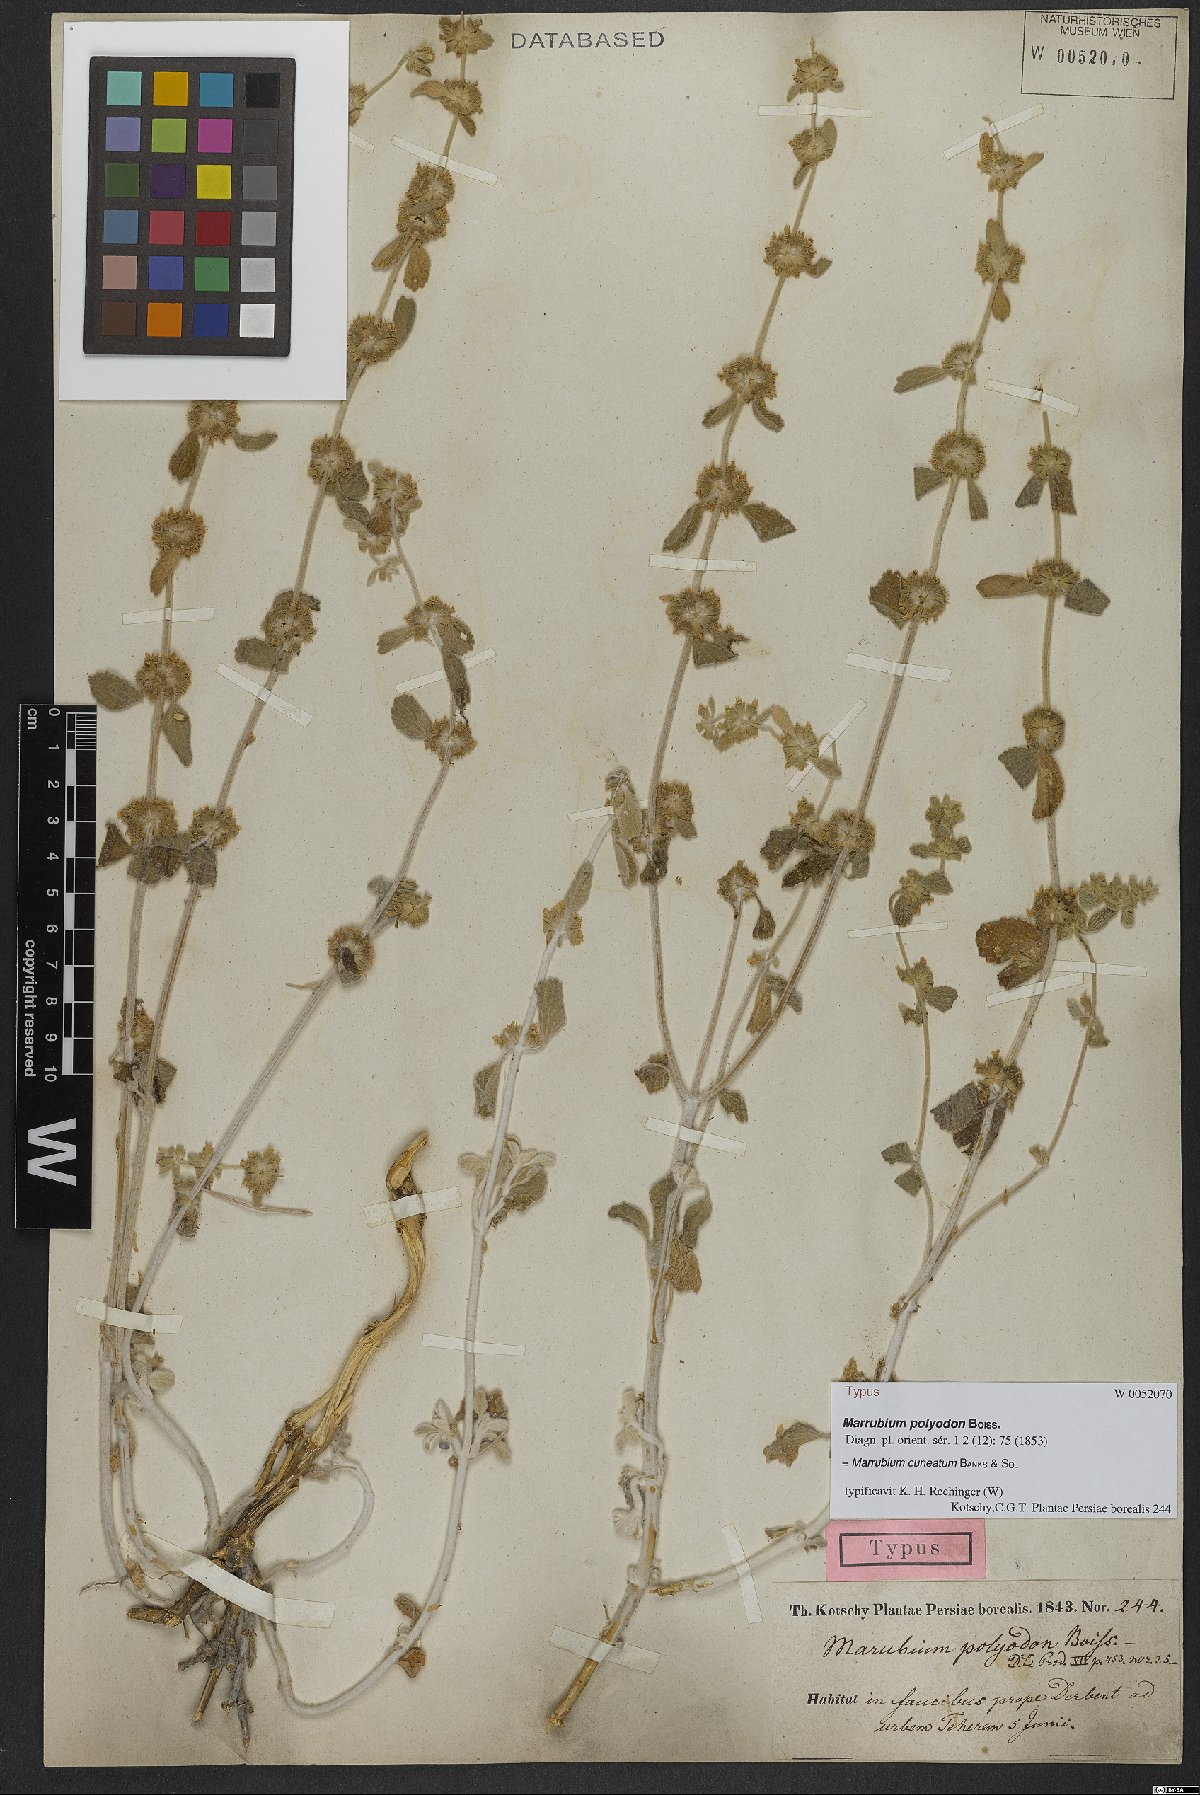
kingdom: Plantae
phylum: Tracheophyta
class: Magnoliopsida
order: Lamiales
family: Lamiaceae
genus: Marrubium
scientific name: Marrubium cuneatum
